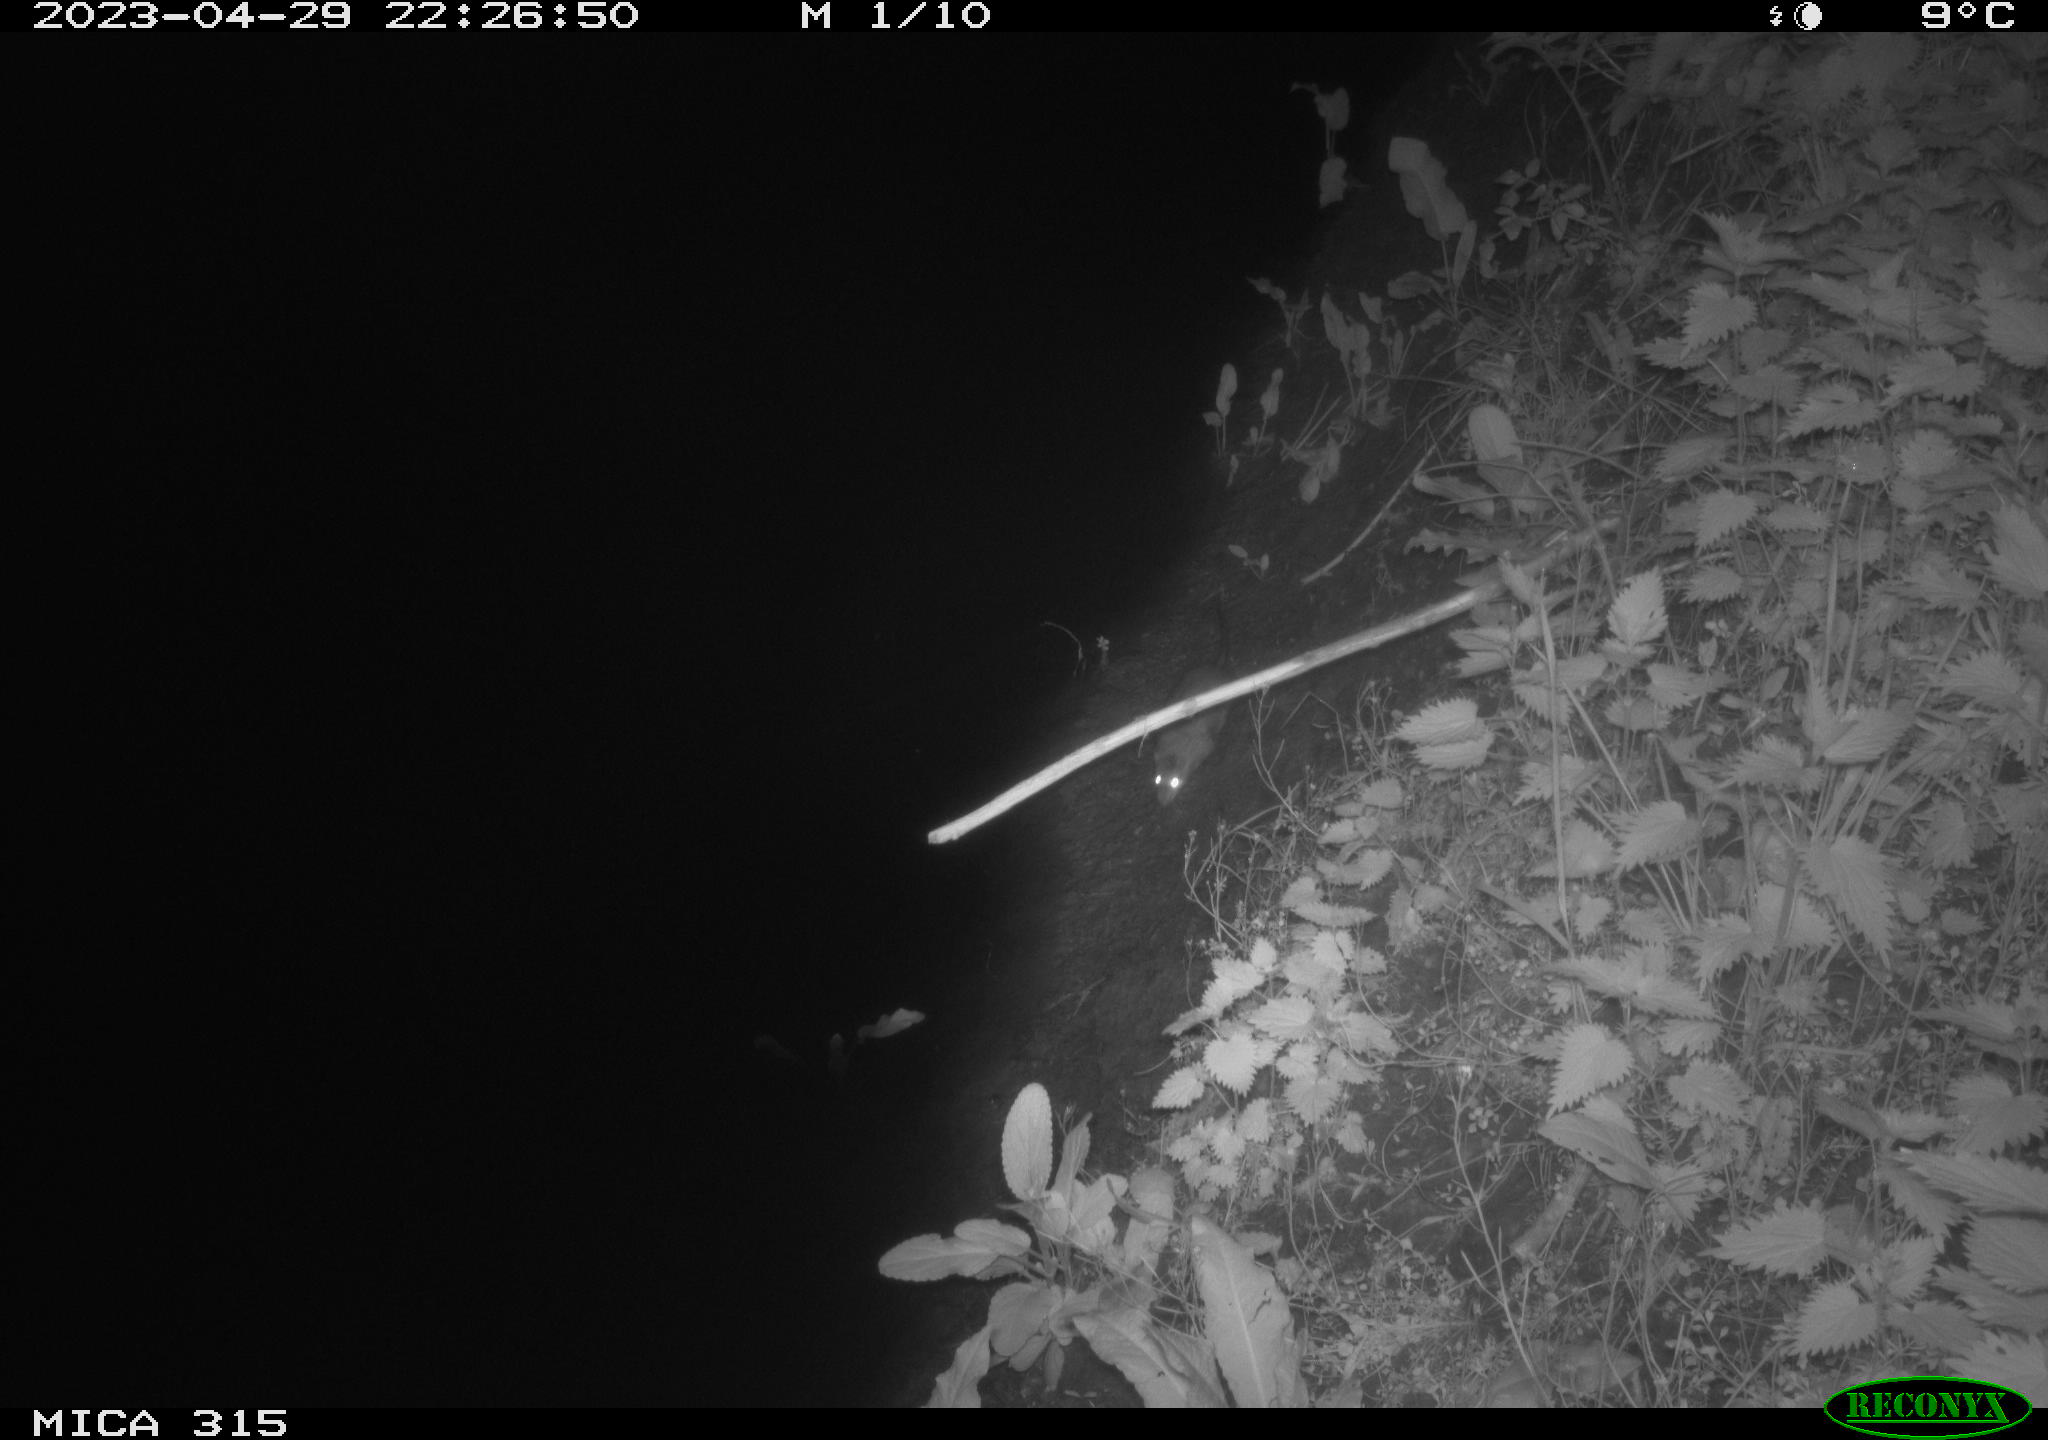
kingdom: Animalia
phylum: Chordata
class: Mammalia
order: Rodentia
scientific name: Rodentia
